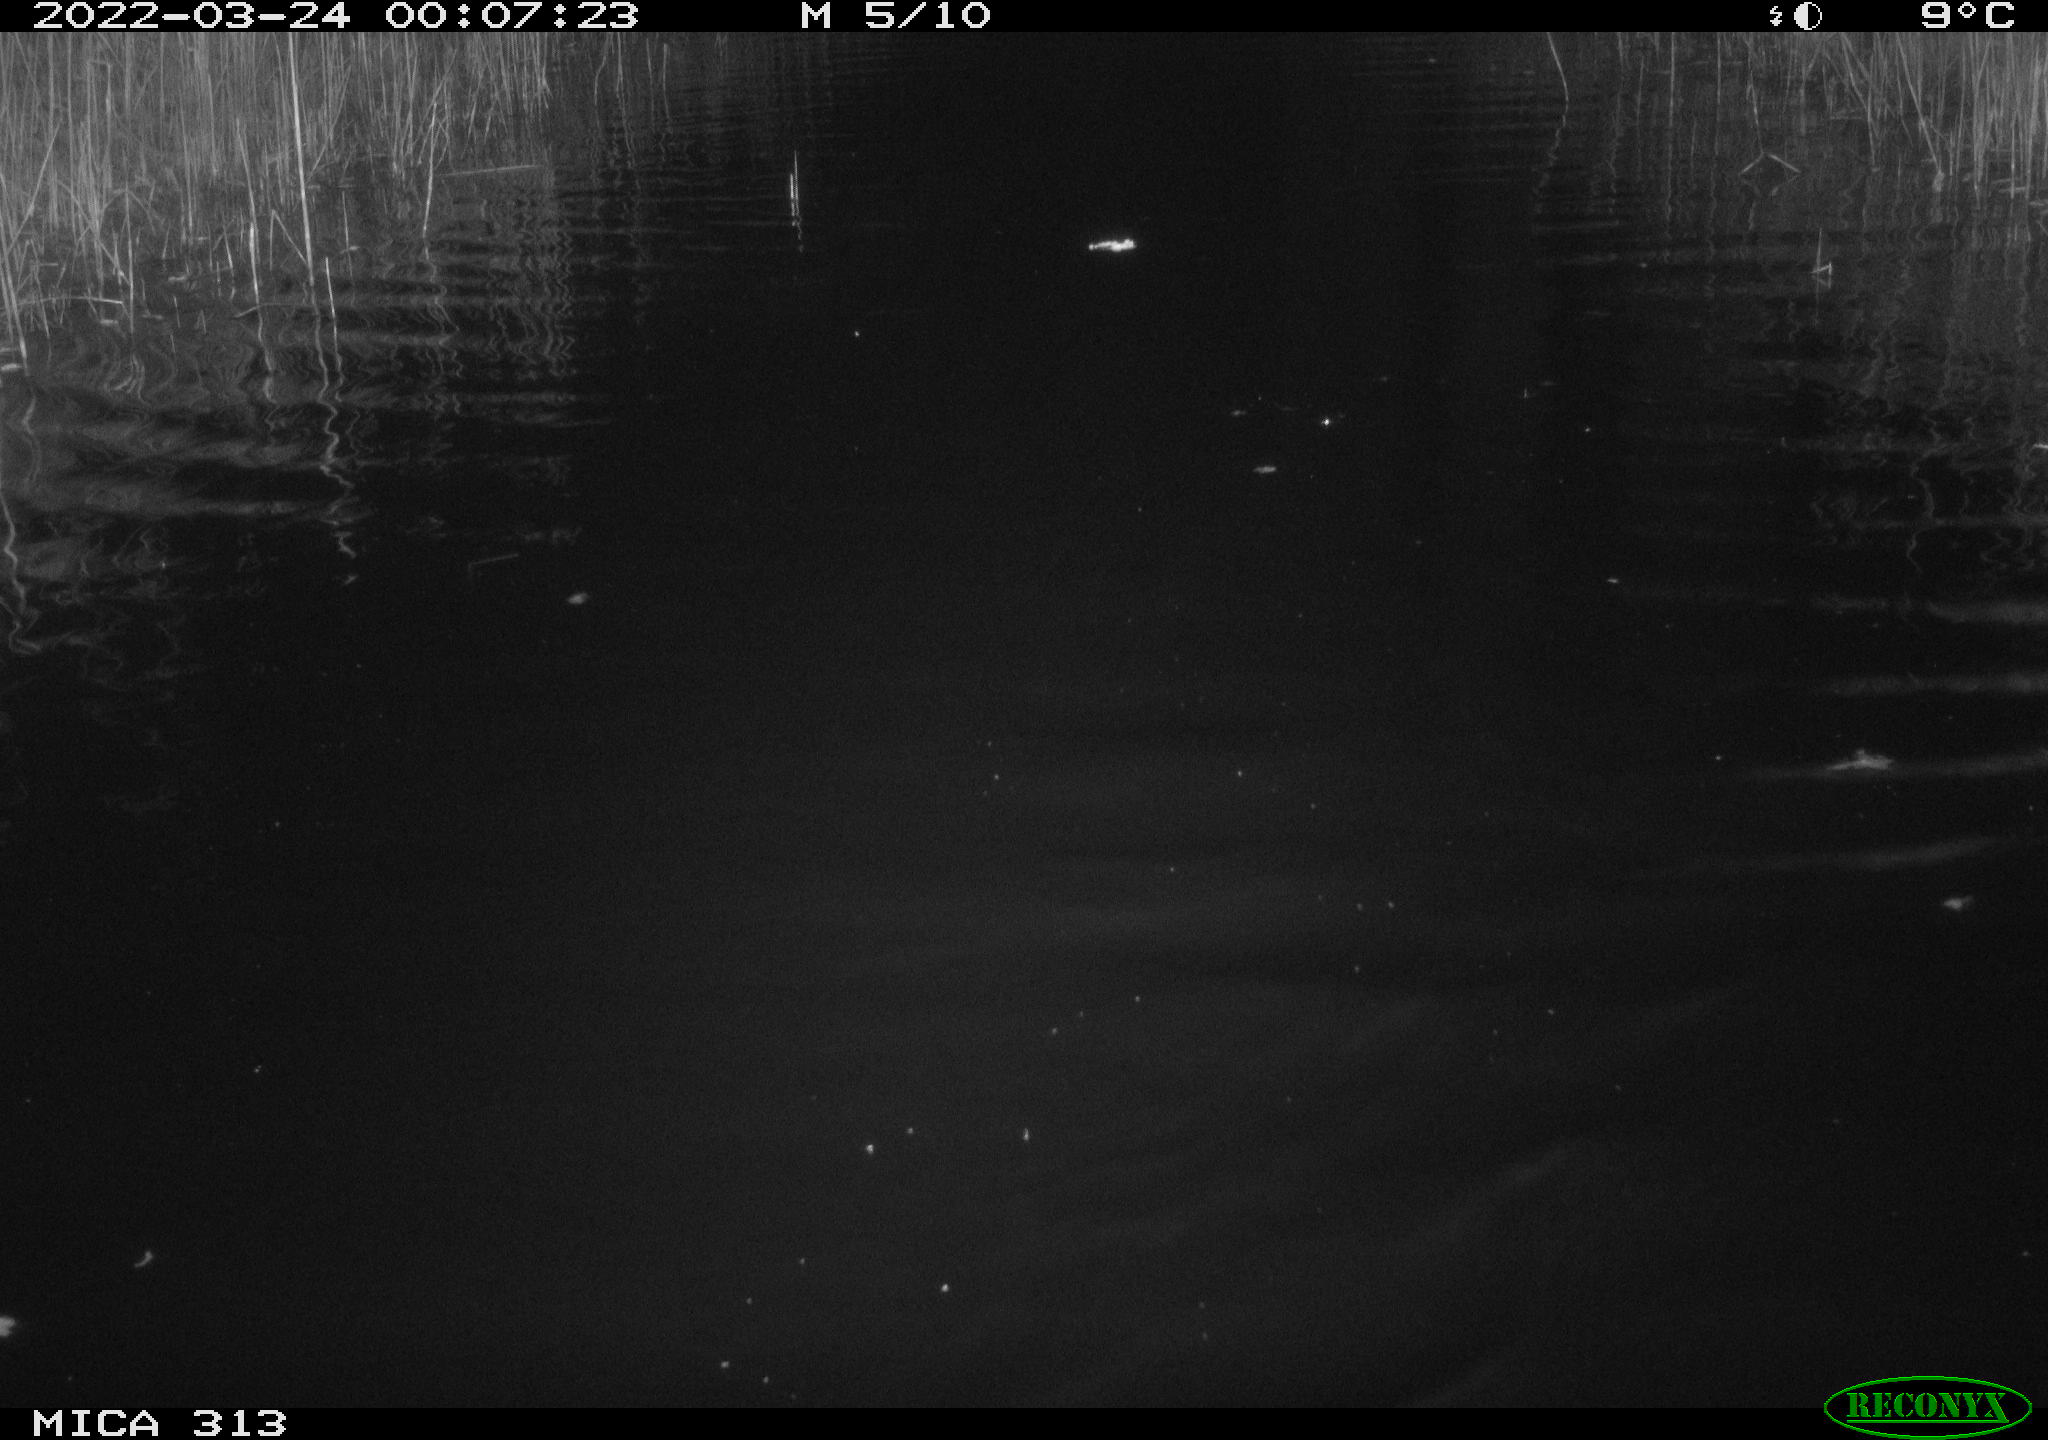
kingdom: Animalia
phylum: Chordata
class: Aves
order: Anseriformes
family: Anatidae
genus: Anas
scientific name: Anas platyrhynchos
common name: Mallard
